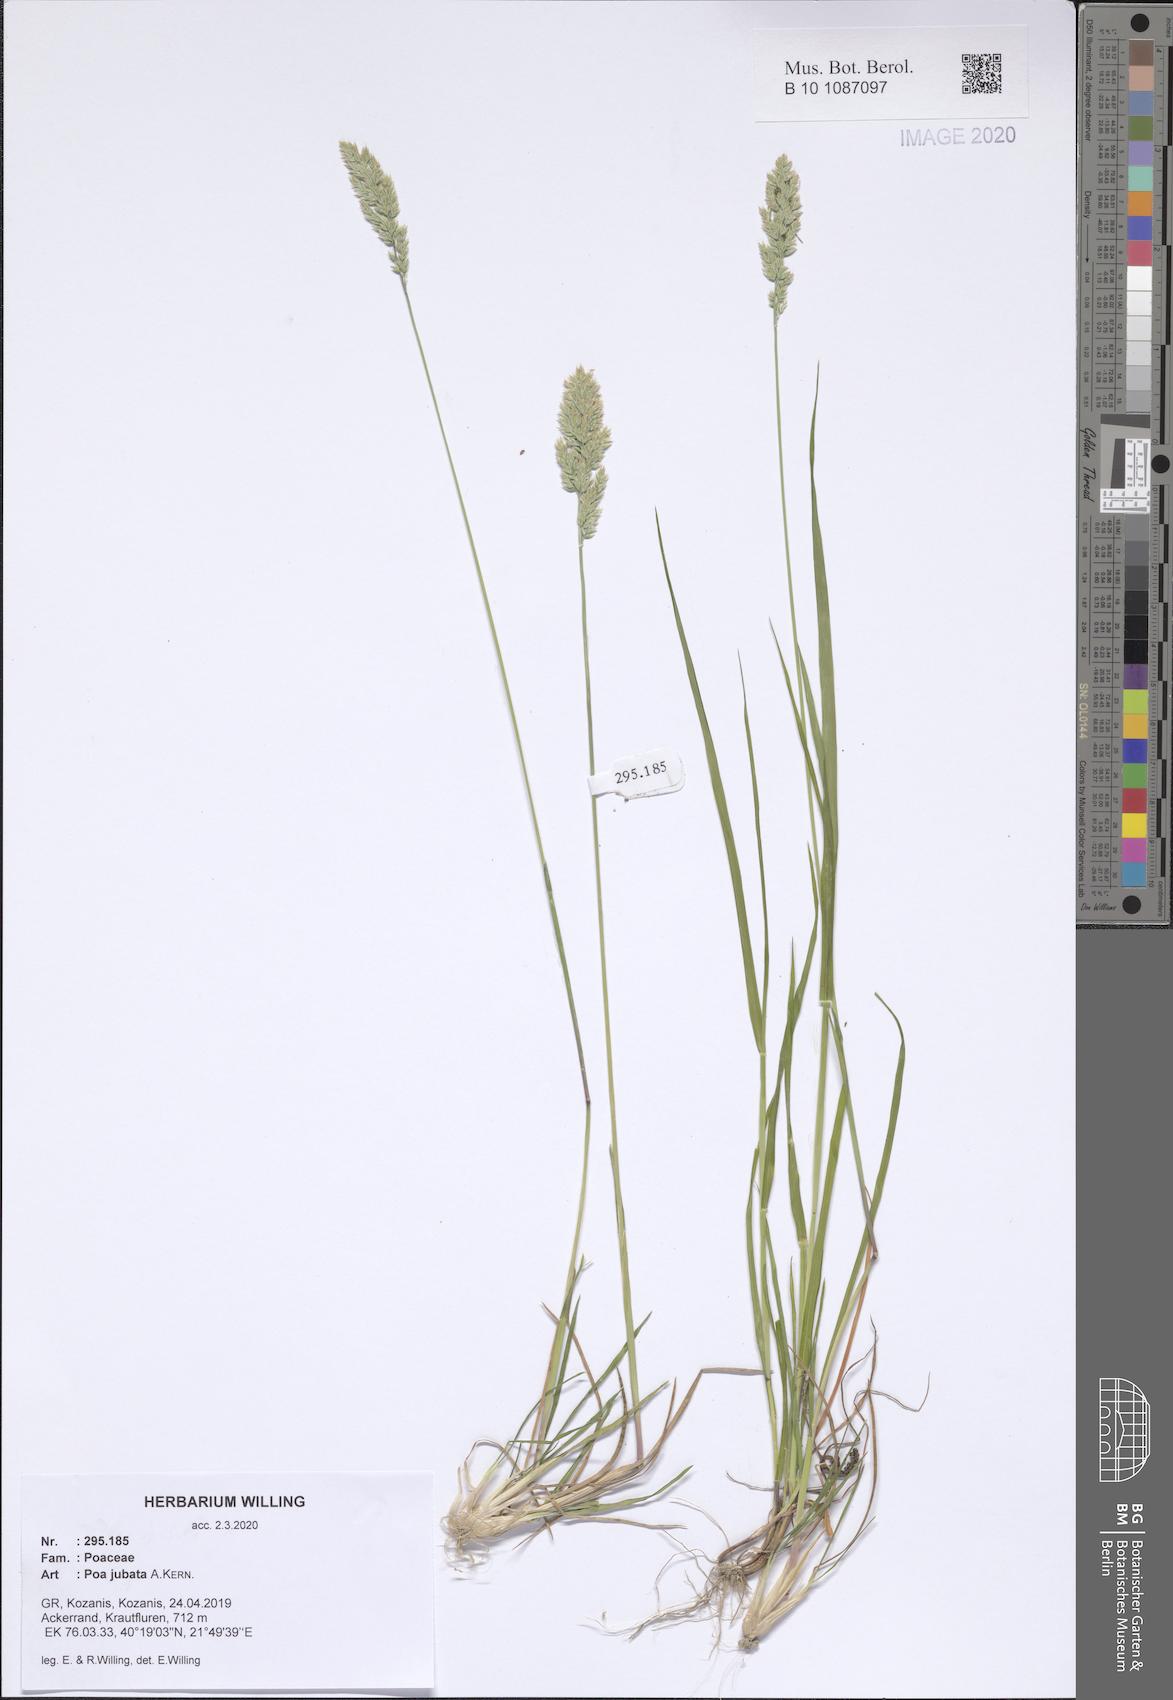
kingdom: Plantae
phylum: Tracheophyta
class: Liliopsida
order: Poales
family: Poaceae
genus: Poa
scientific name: Poa jubata
